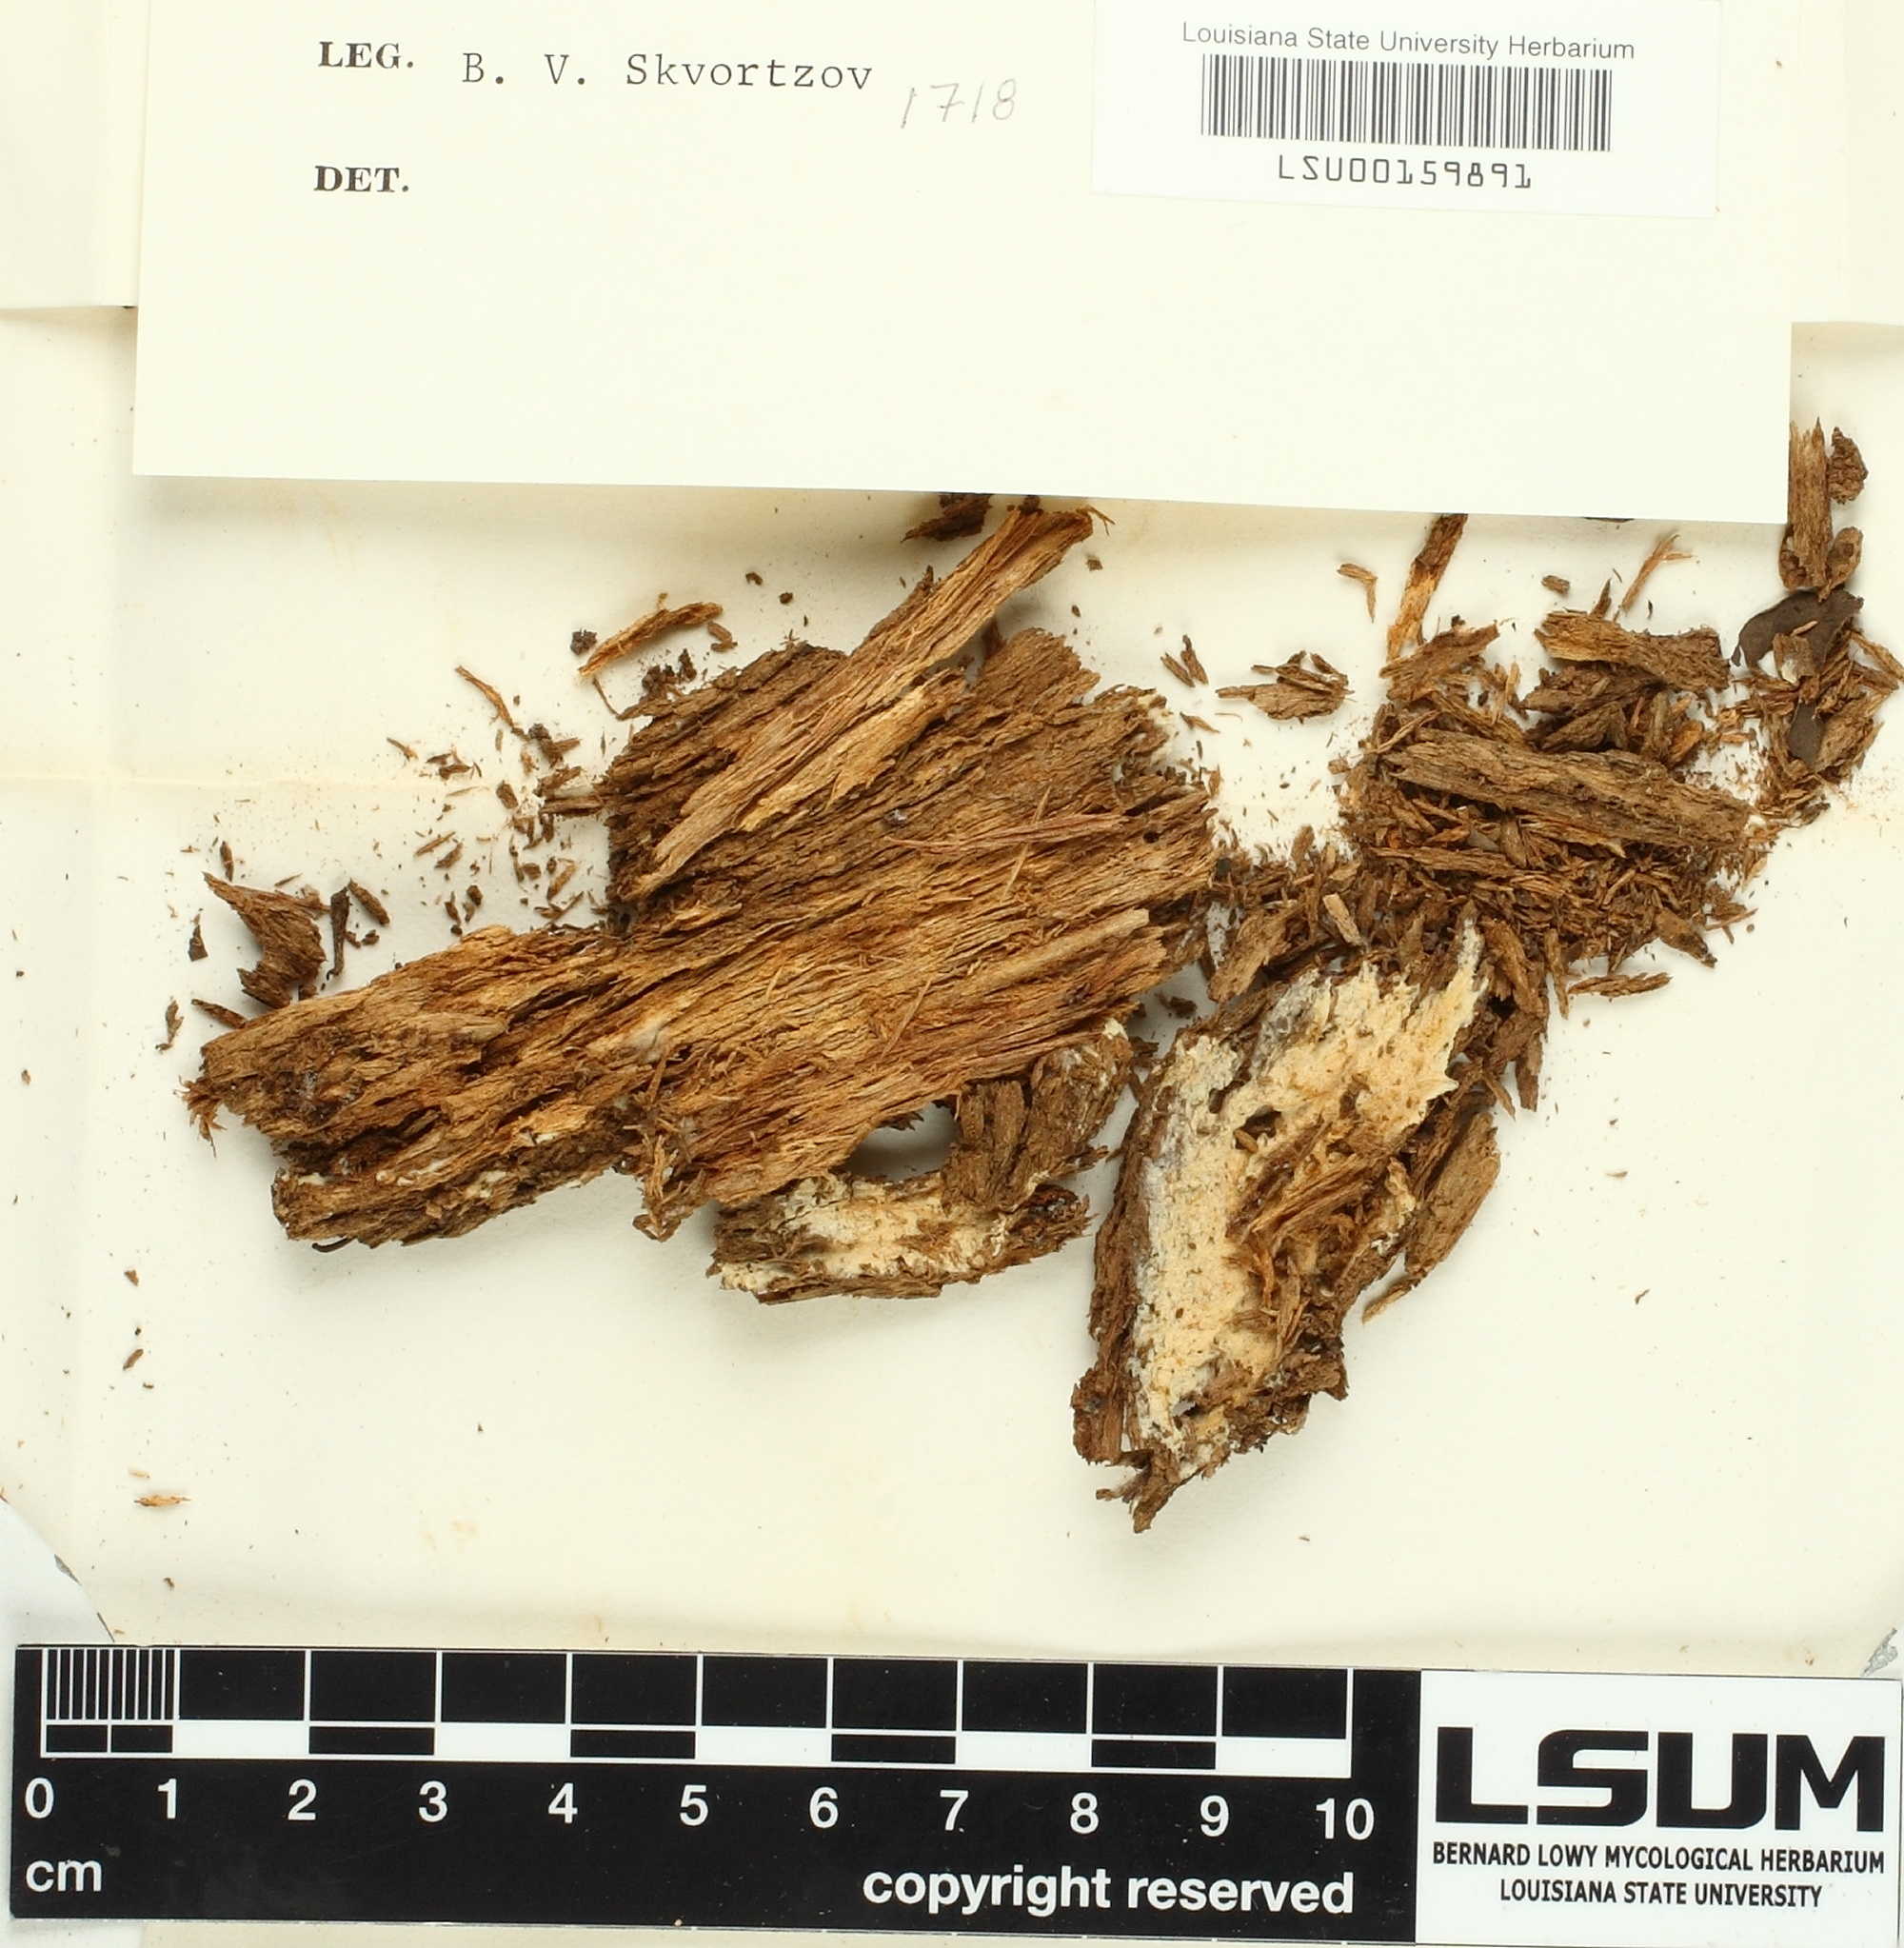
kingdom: Fungi
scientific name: Fungi
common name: Fungi
